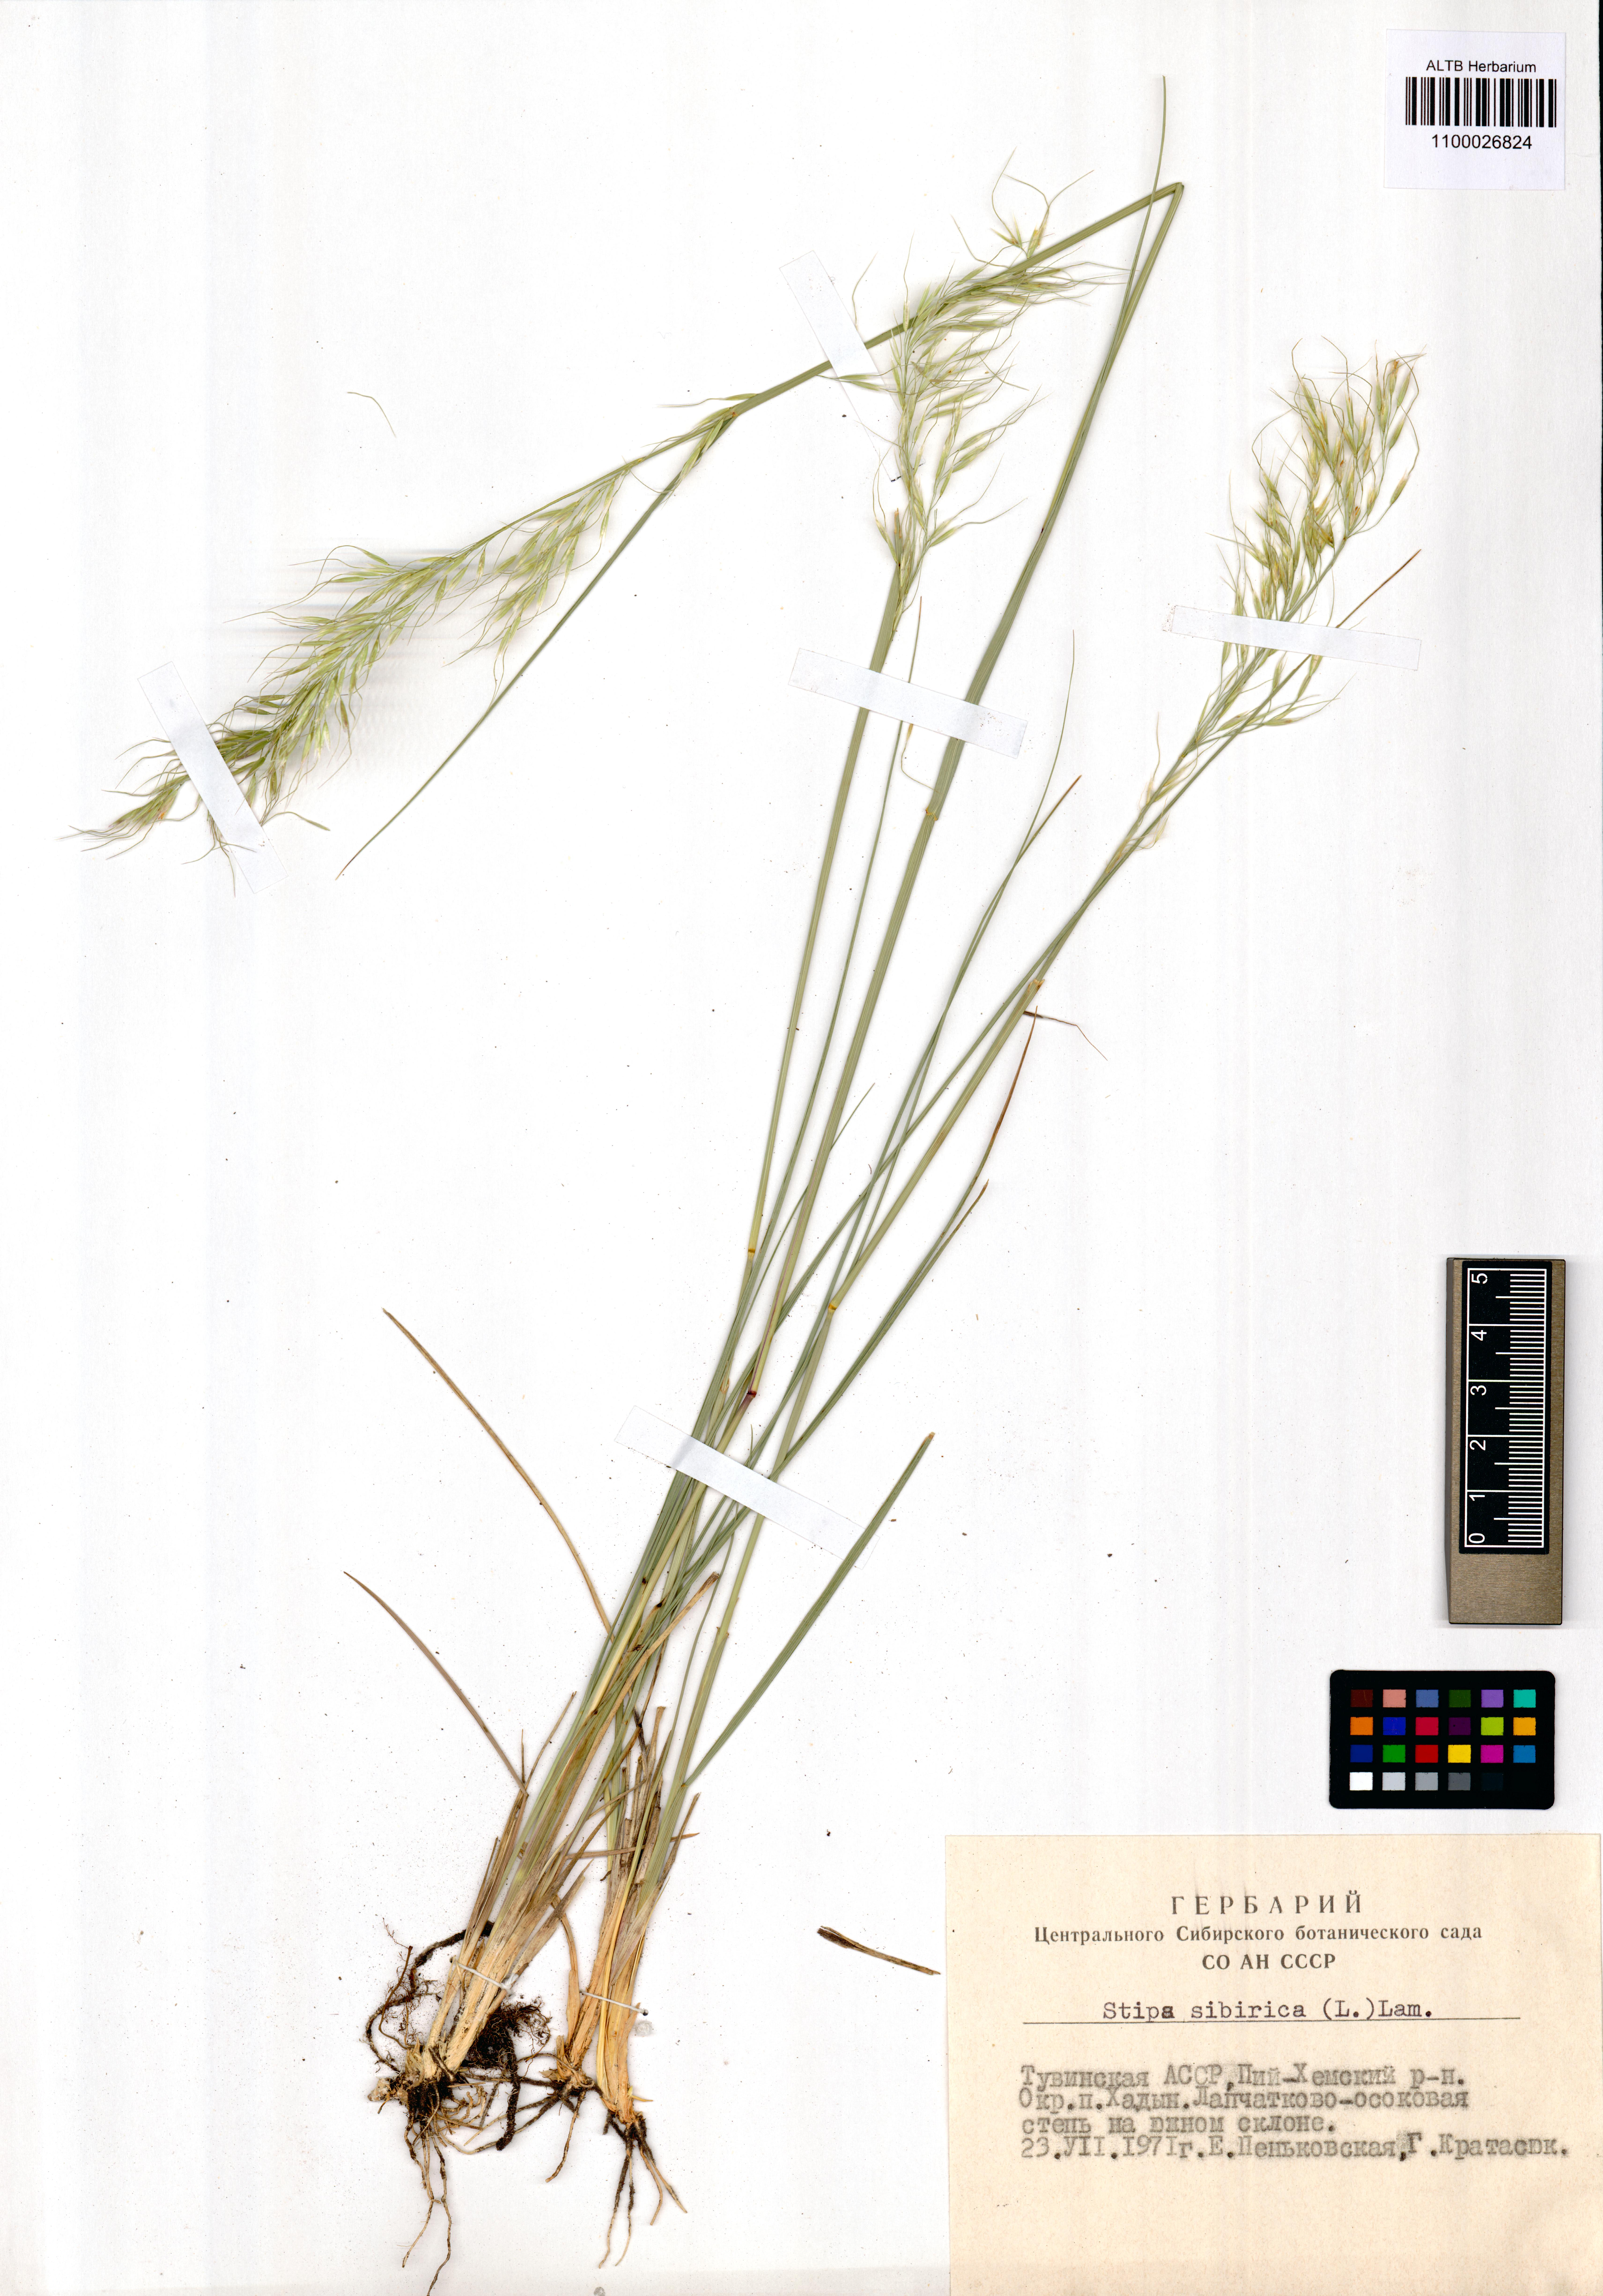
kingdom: Plantae
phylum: Tracheophyta
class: Liliopsida
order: Poales
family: Poaceae
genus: Achnatherum
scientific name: Achnatherum sibiricum
